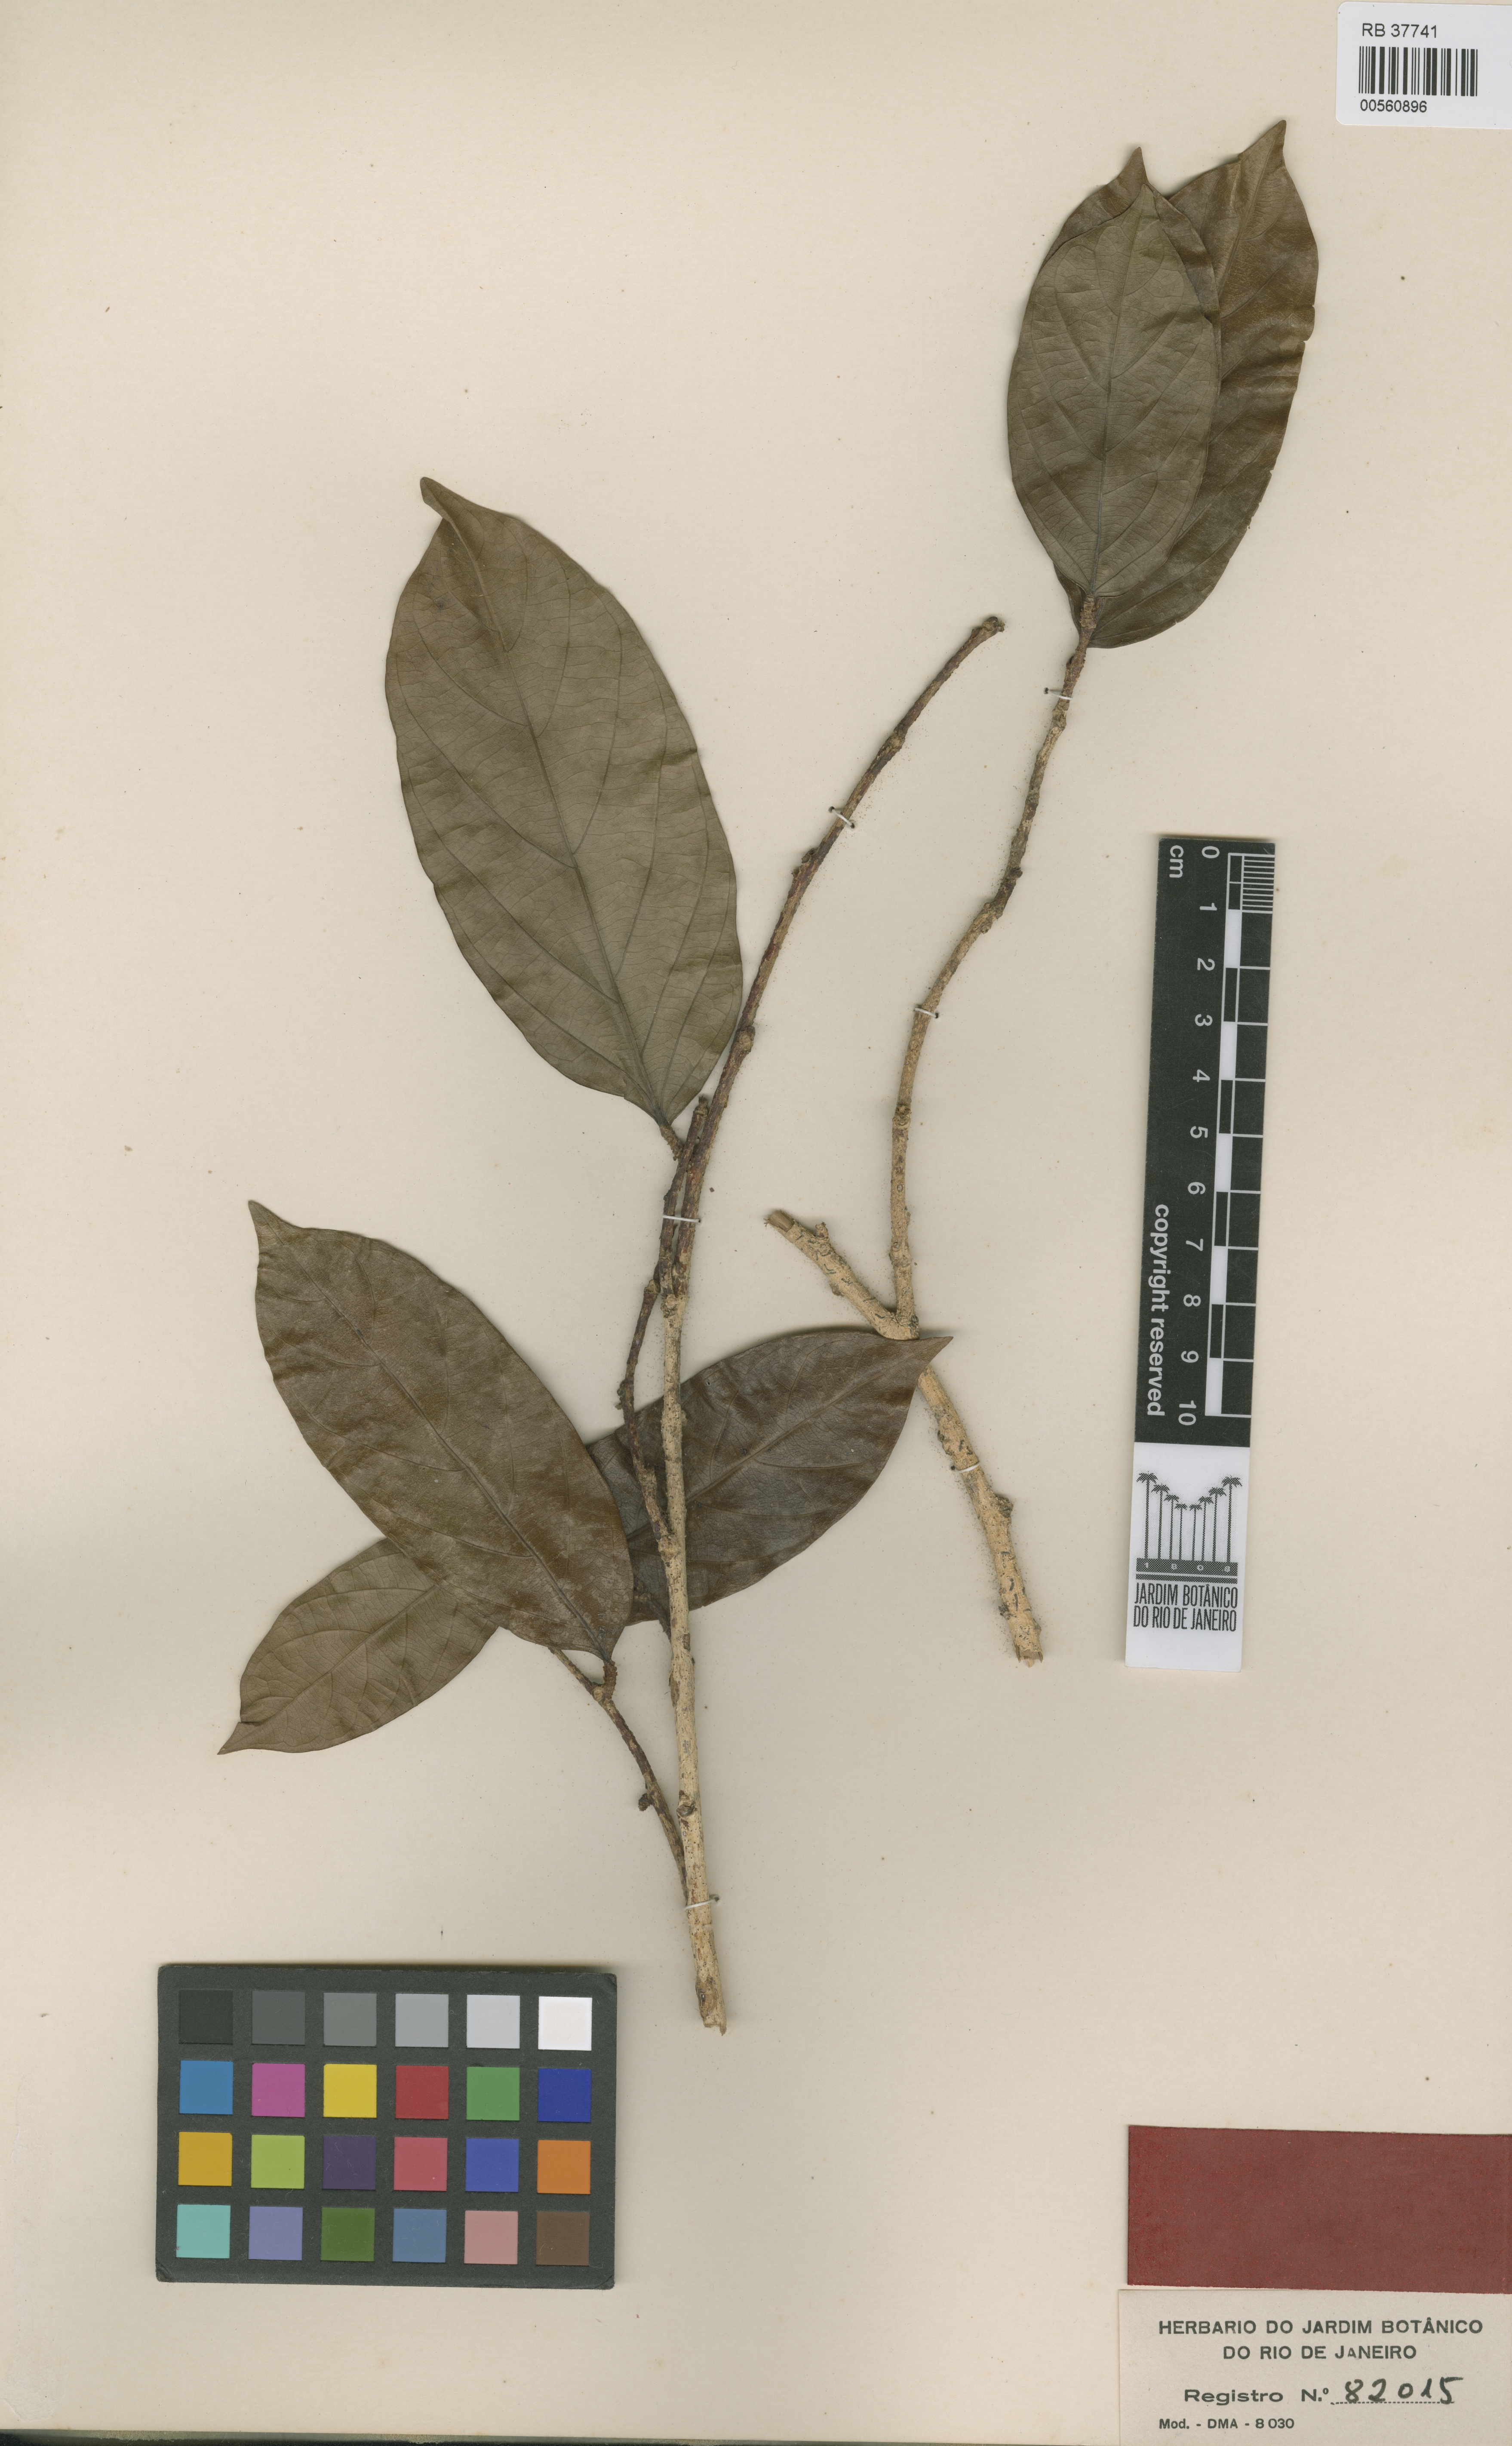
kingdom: Plantae
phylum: Tracheophyta
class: Magnoliopsida
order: Rosales
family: Cannabaceae
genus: Ampelocera
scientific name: Ampelocera edentula
